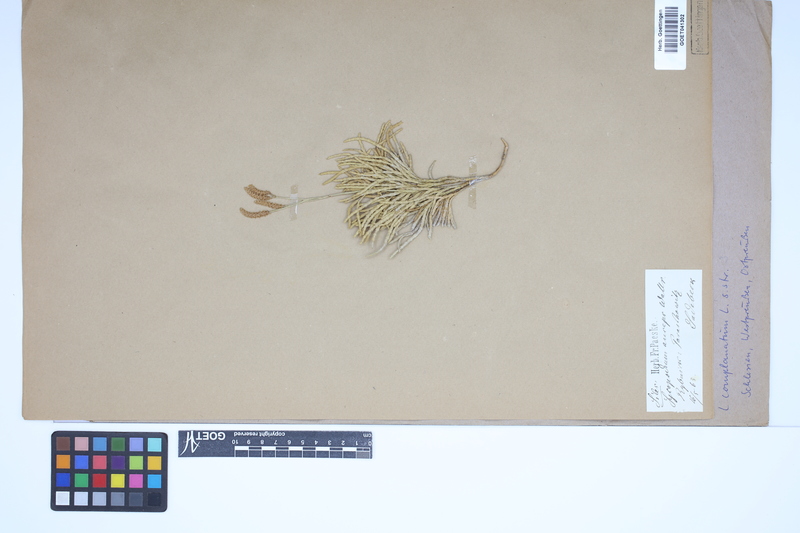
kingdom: Plantae
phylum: Tracheophyta
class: Lycopodiopsida
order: Lycopodiales
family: Lycopodiaceae
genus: Diphasiastrum
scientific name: Diphasiastrum complanatum
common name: Northern running-pine
